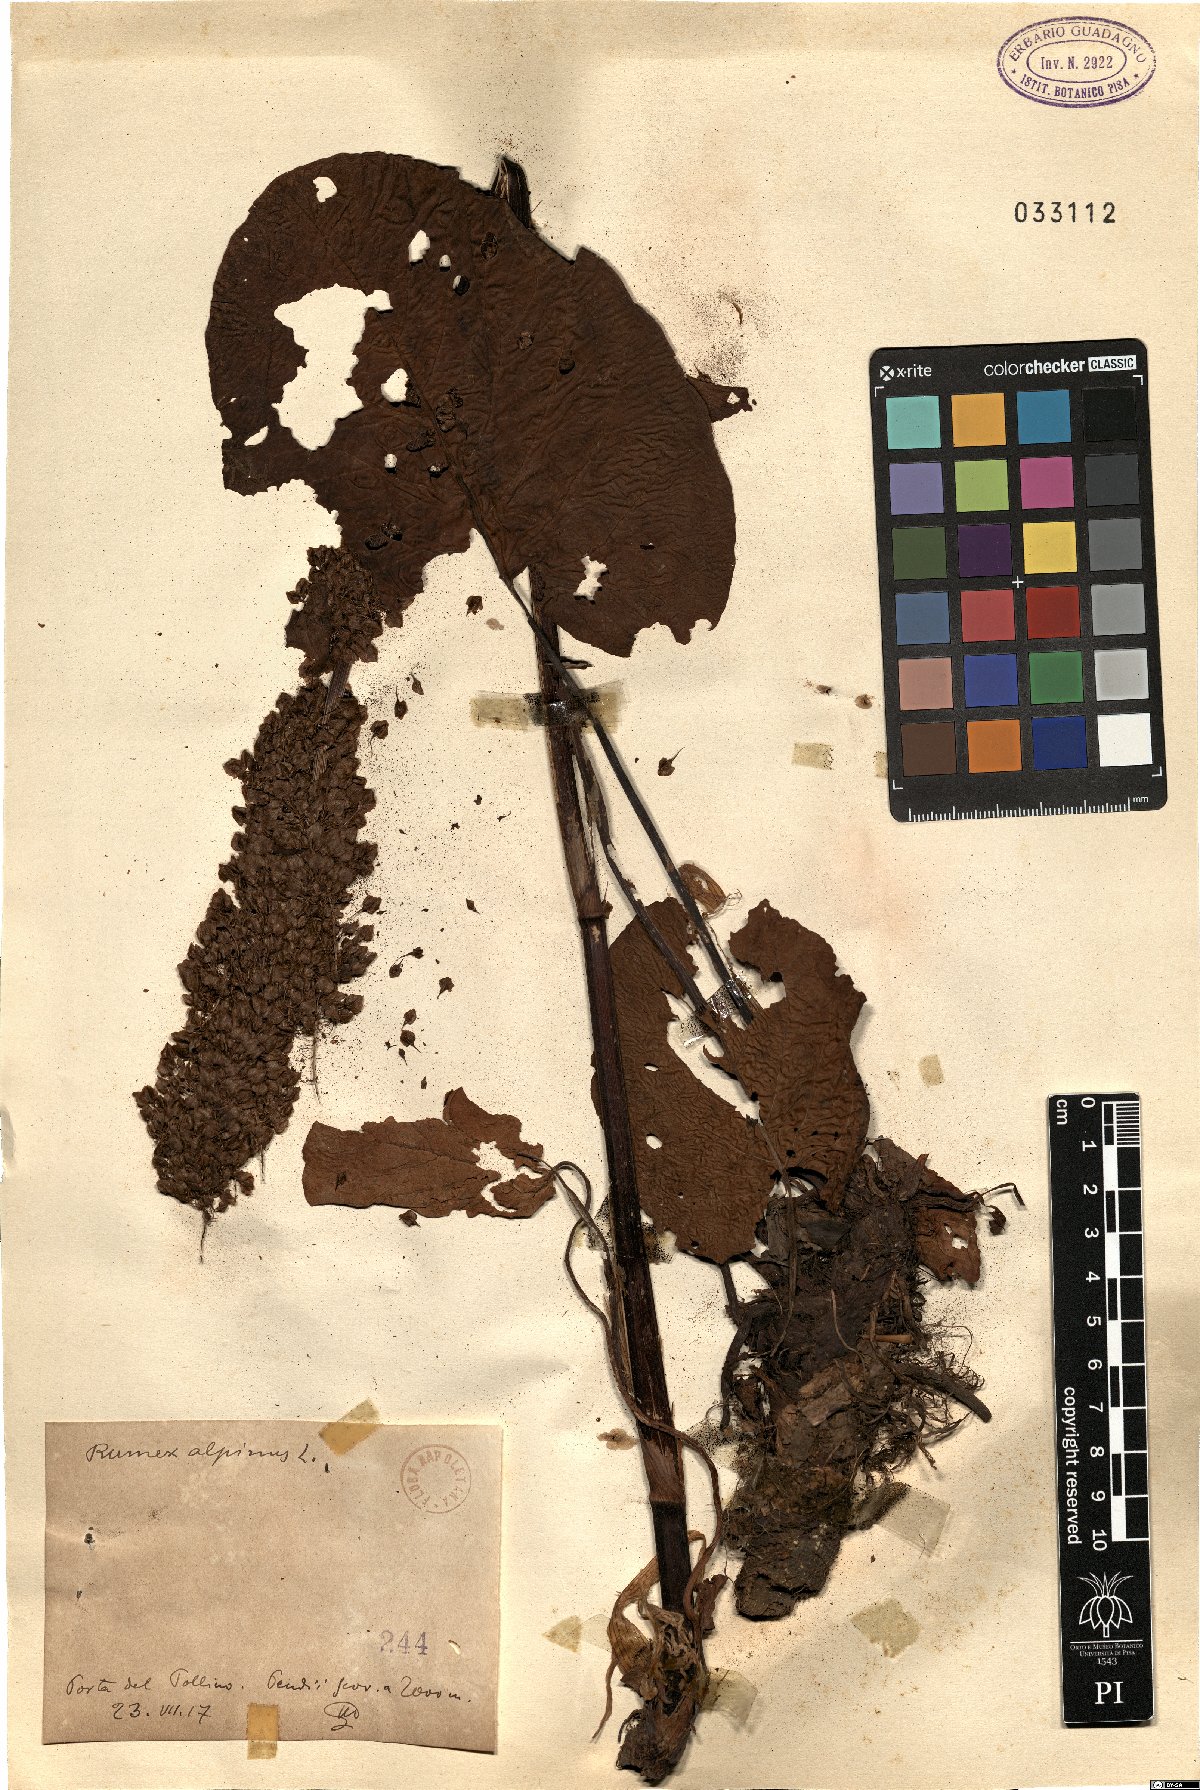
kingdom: Plantae
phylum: Tracheophyta
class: Magnoliopsida
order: Caryophyllales
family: Polygonaceae
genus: Rumex
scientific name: Rumex alpinus
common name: Alpine dock
